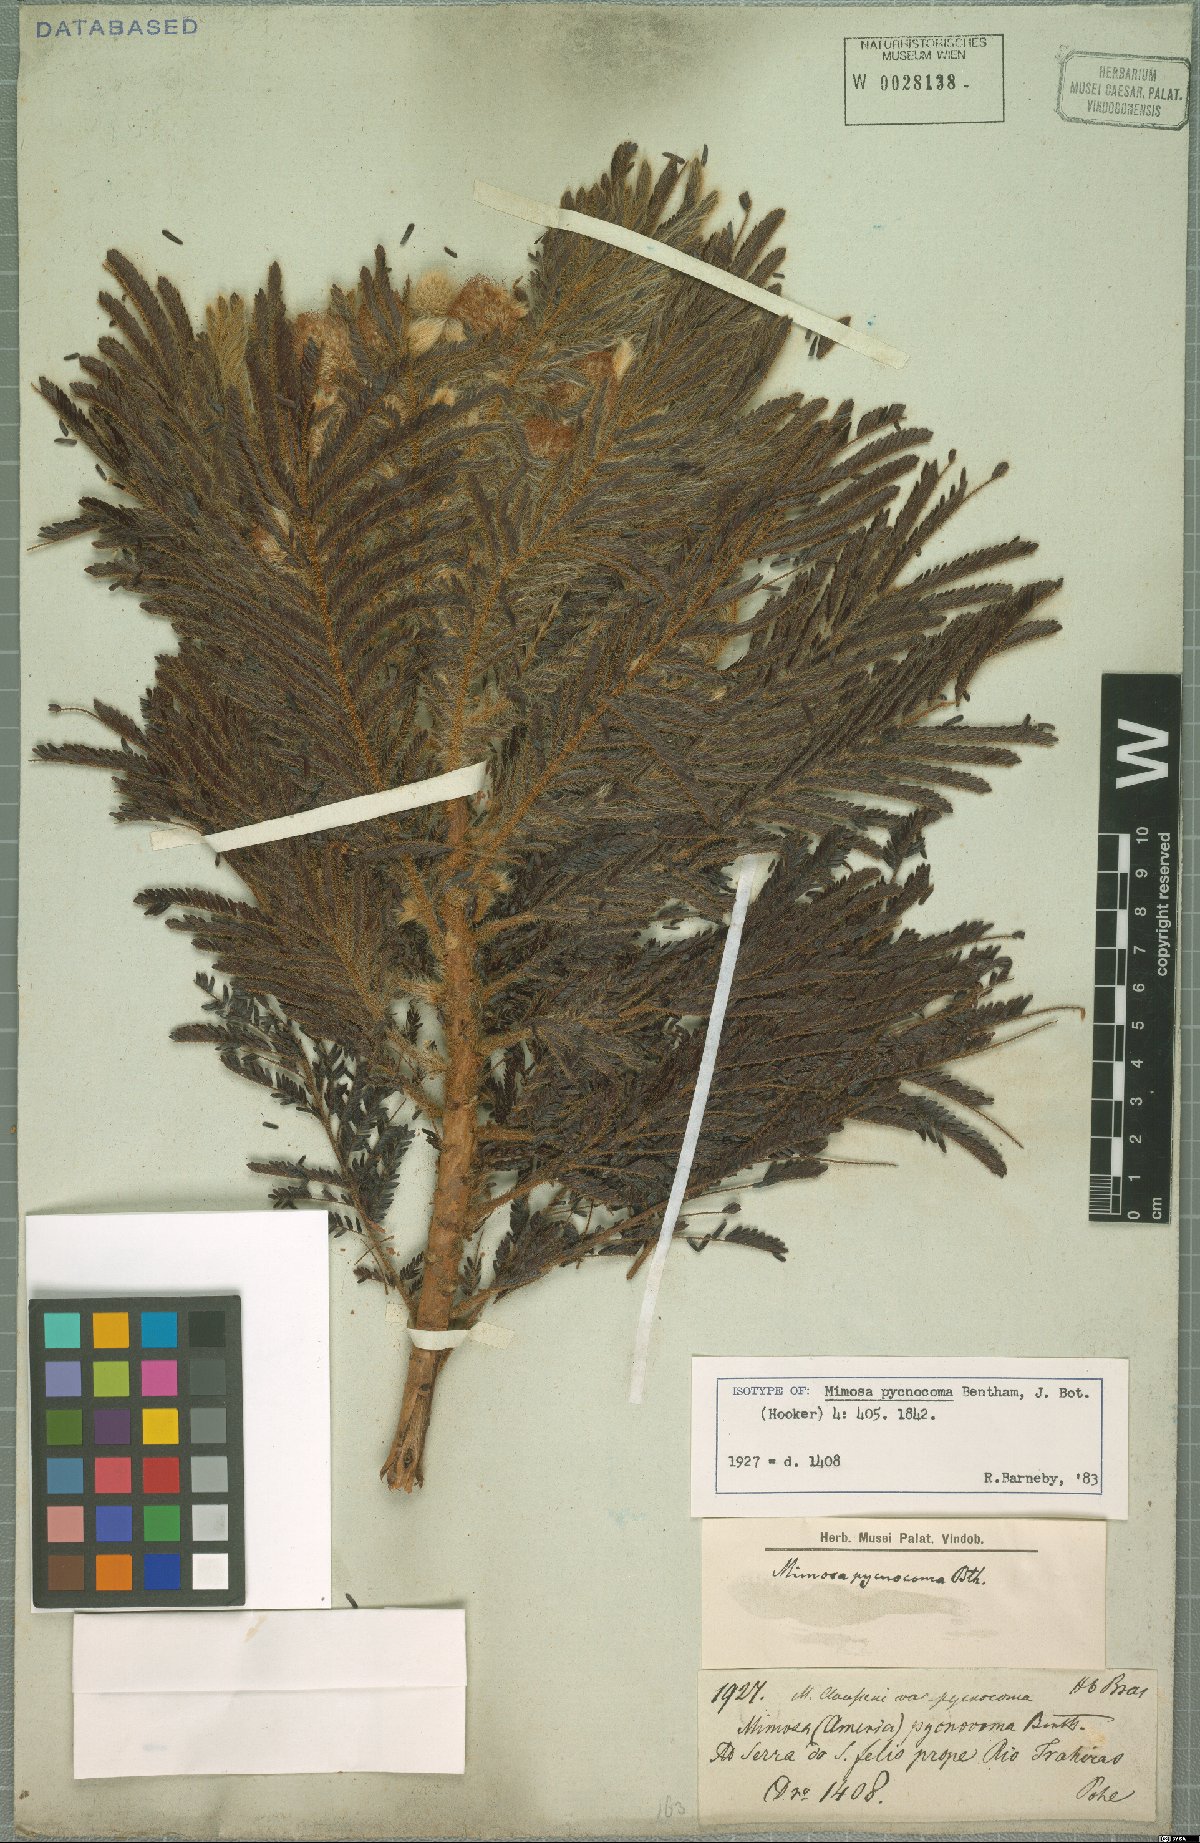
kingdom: Plantae
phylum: Tracheophyta
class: Magnoliopsida
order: Fabales
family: Fabaceae
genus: Mimosa
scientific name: Mimosa pycnocoma
